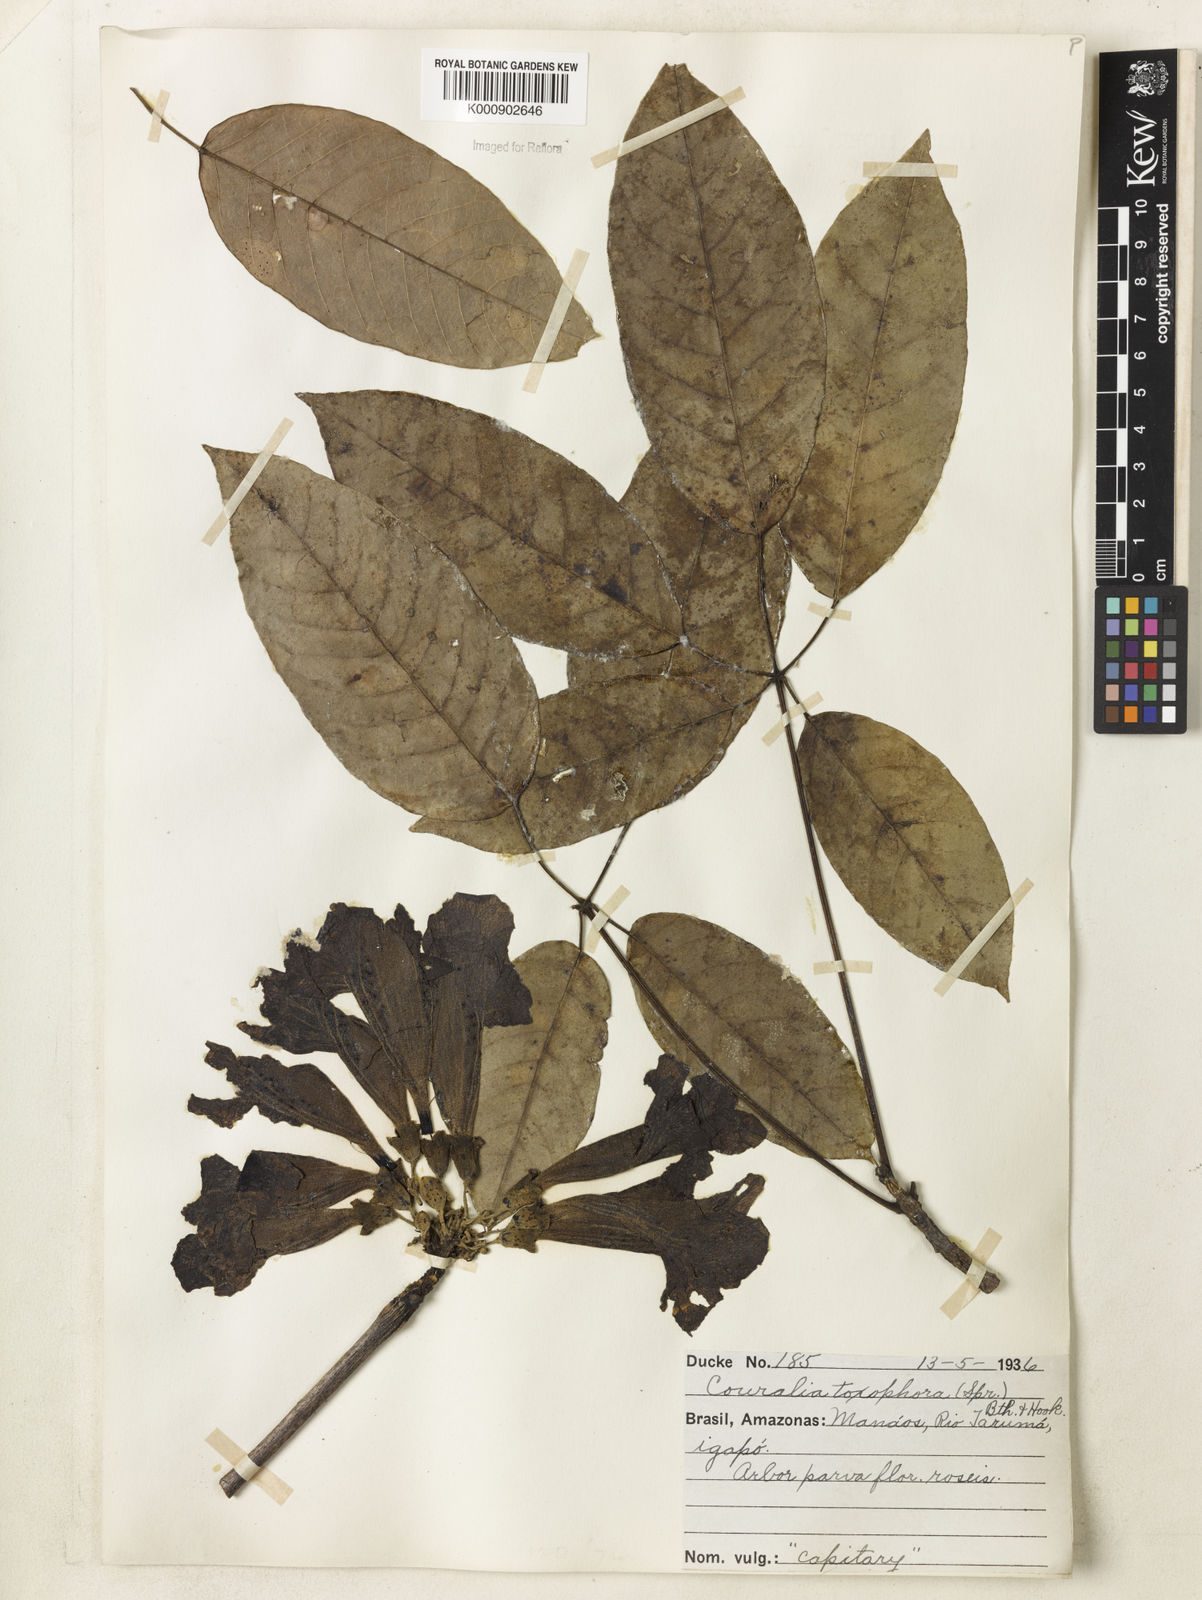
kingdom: Plantae
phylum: Tracheophyta
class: Magnoliopsida
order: Lamiales
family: Bignoniaceae
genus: Handroanthus
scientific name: Handroanthus barbatus
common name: Trumpet trees
